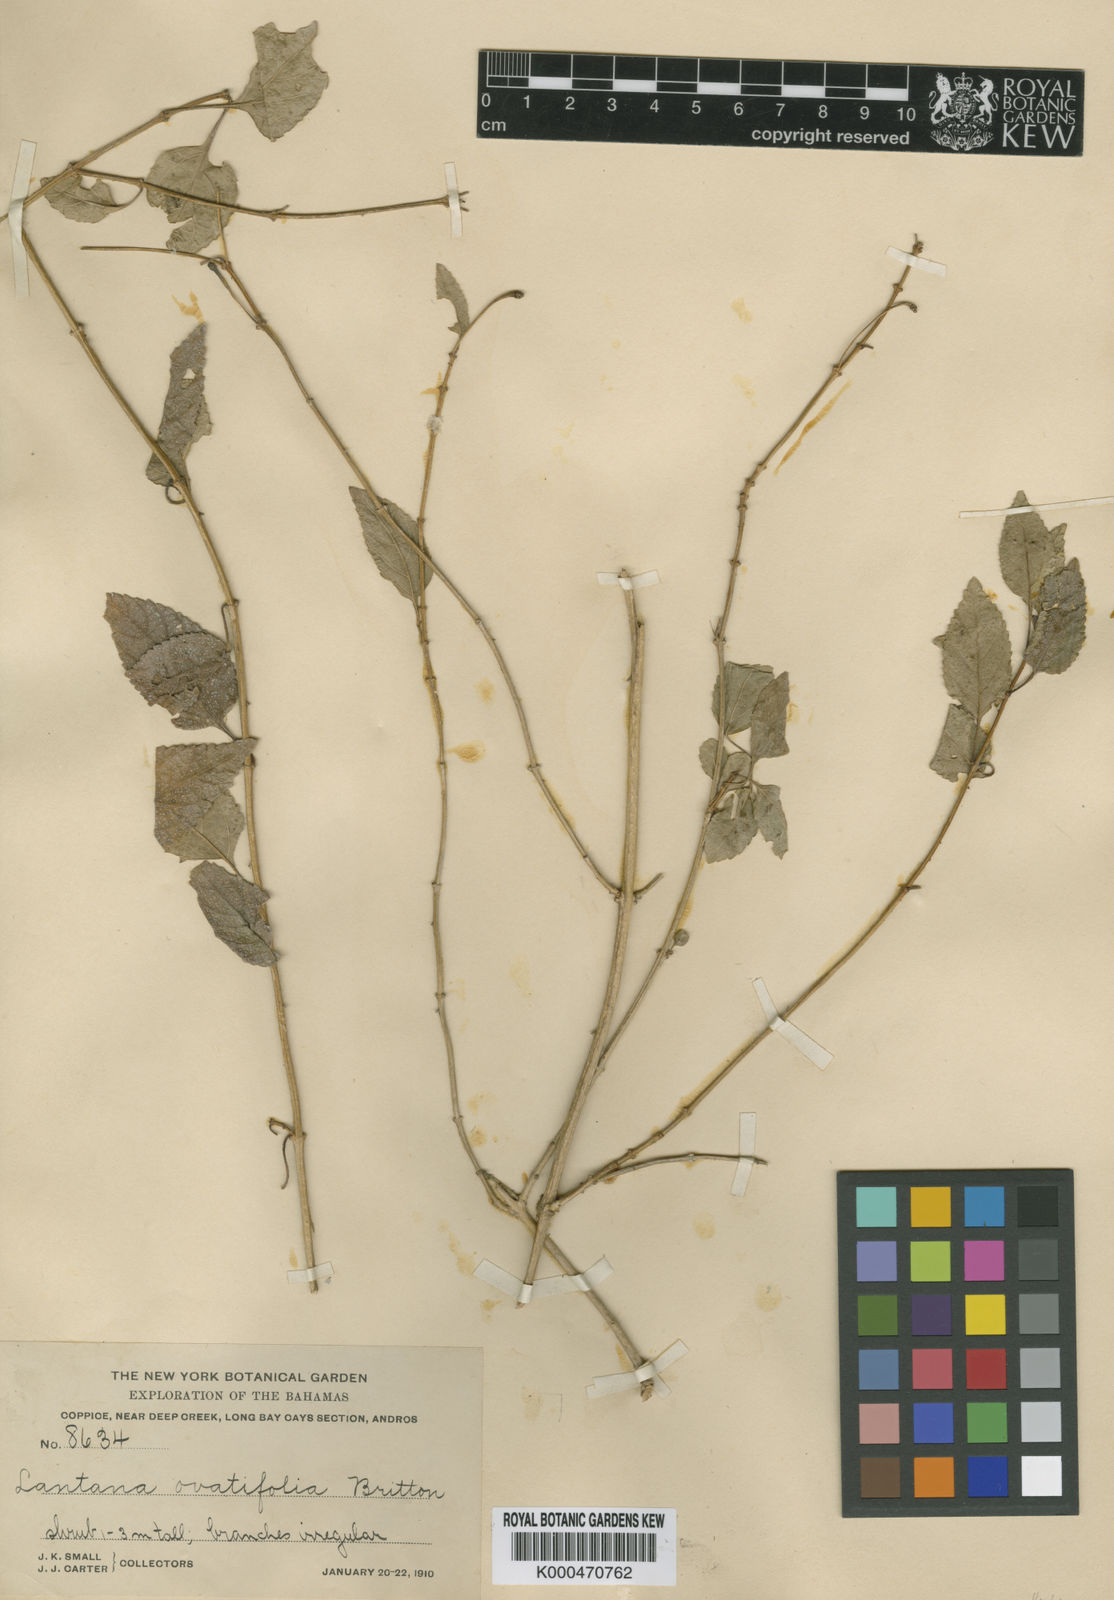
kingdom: Plantae
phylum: Tracheophyta
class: Magnoliopsida
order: Lamiales
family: Verbenaceae
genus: Lantana
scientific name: Lantana ovatifolia
